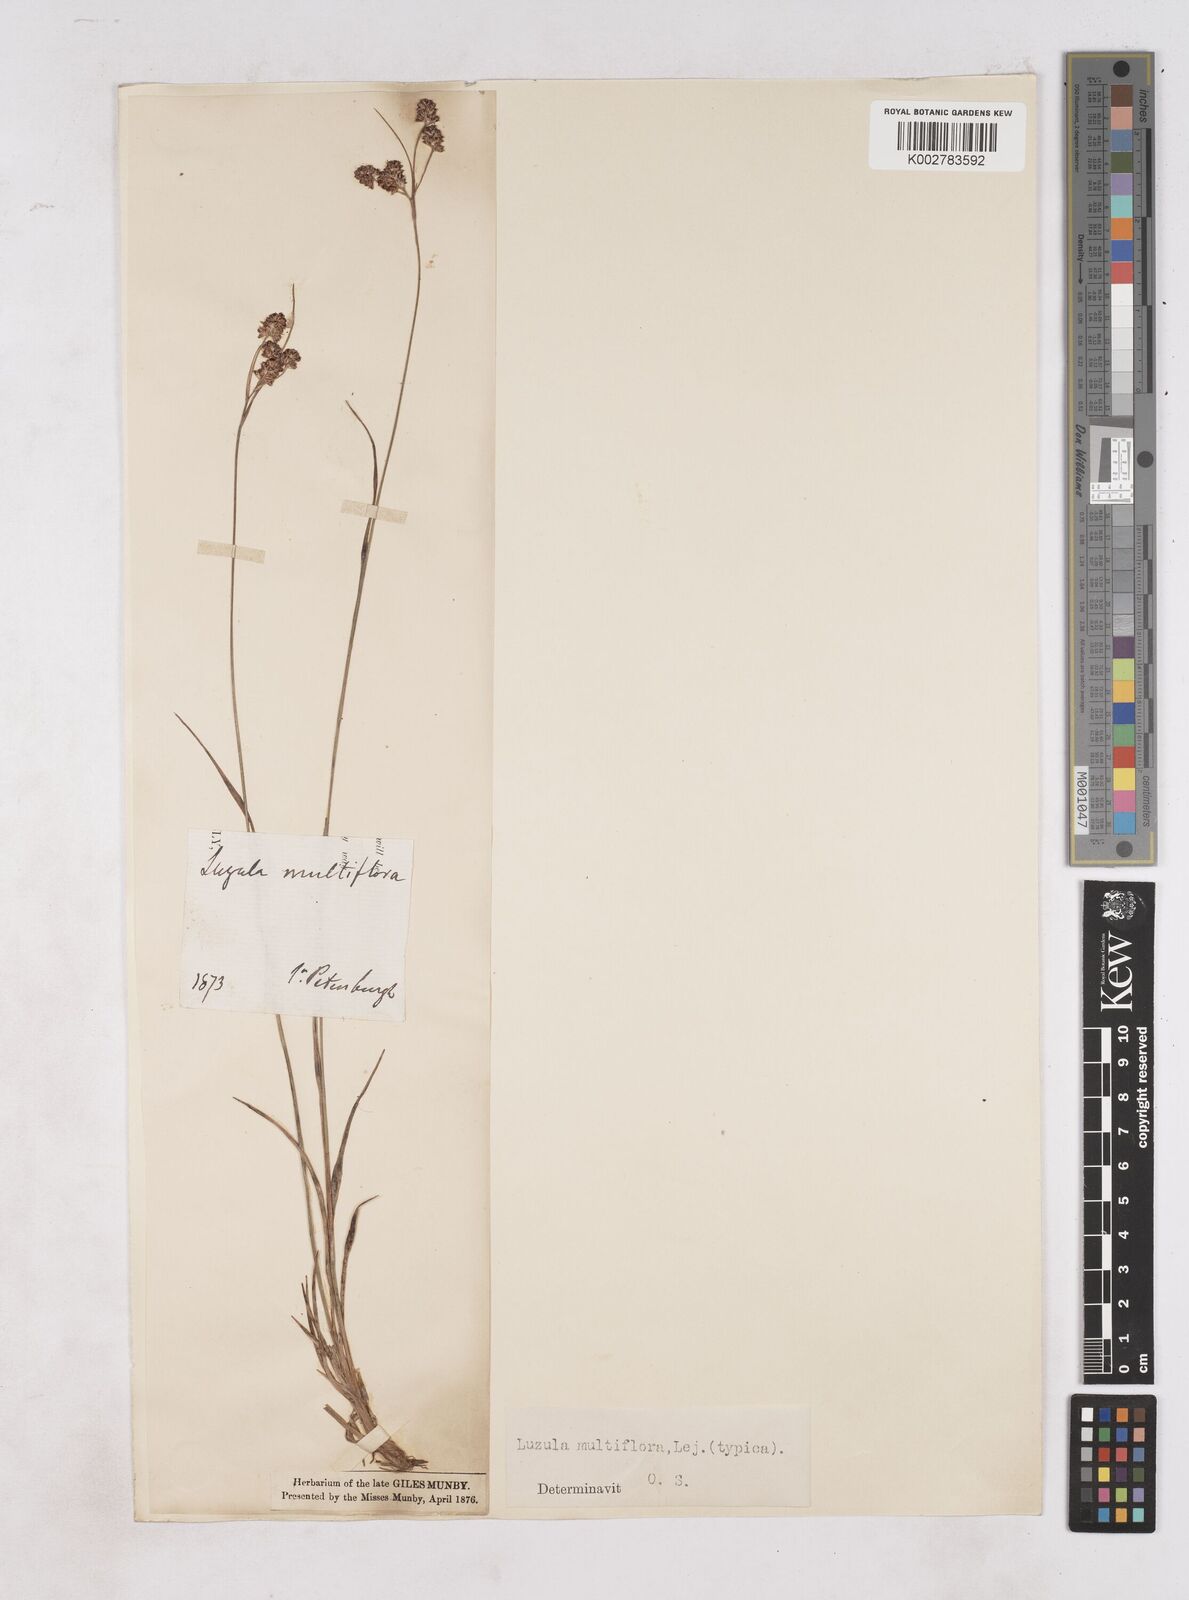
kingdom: Plantae
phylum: Tracheophyta
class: Liliopsida
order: Poales
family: Juncaceae
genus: Luzula
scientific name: Luzula
